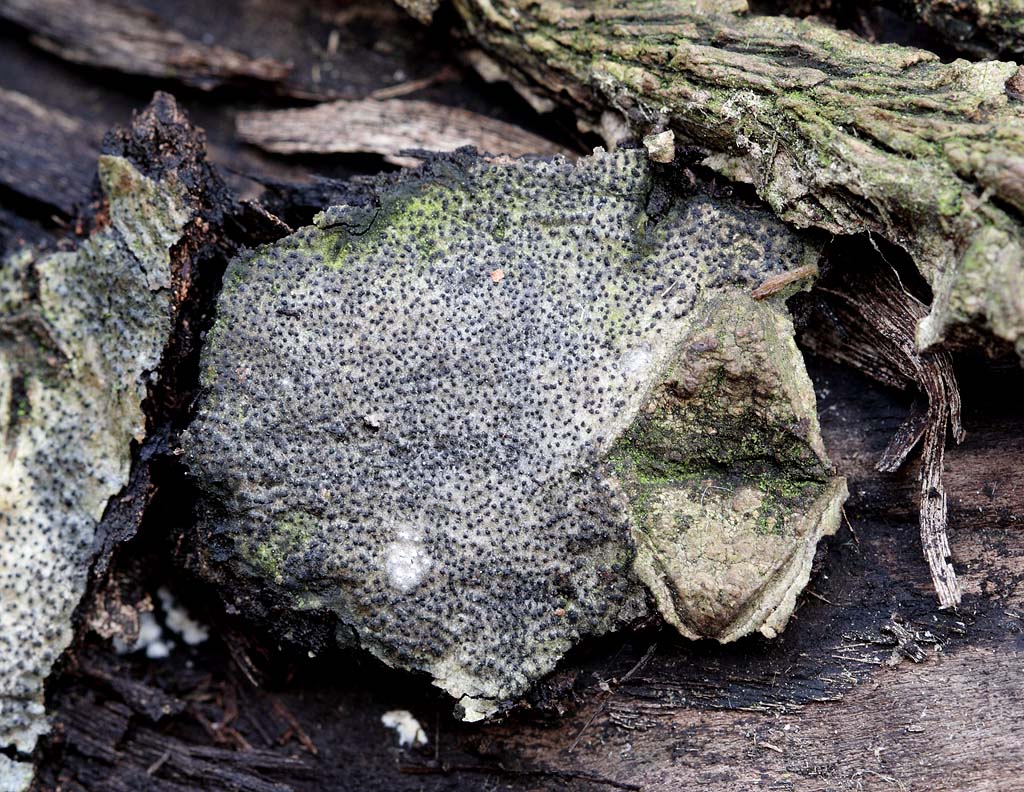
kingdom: Fungi
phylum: Ascomycota
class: Sordariomycetes
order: Diaporthales
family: Valsaceae
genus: Cytospora
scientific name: Cytospora populina
